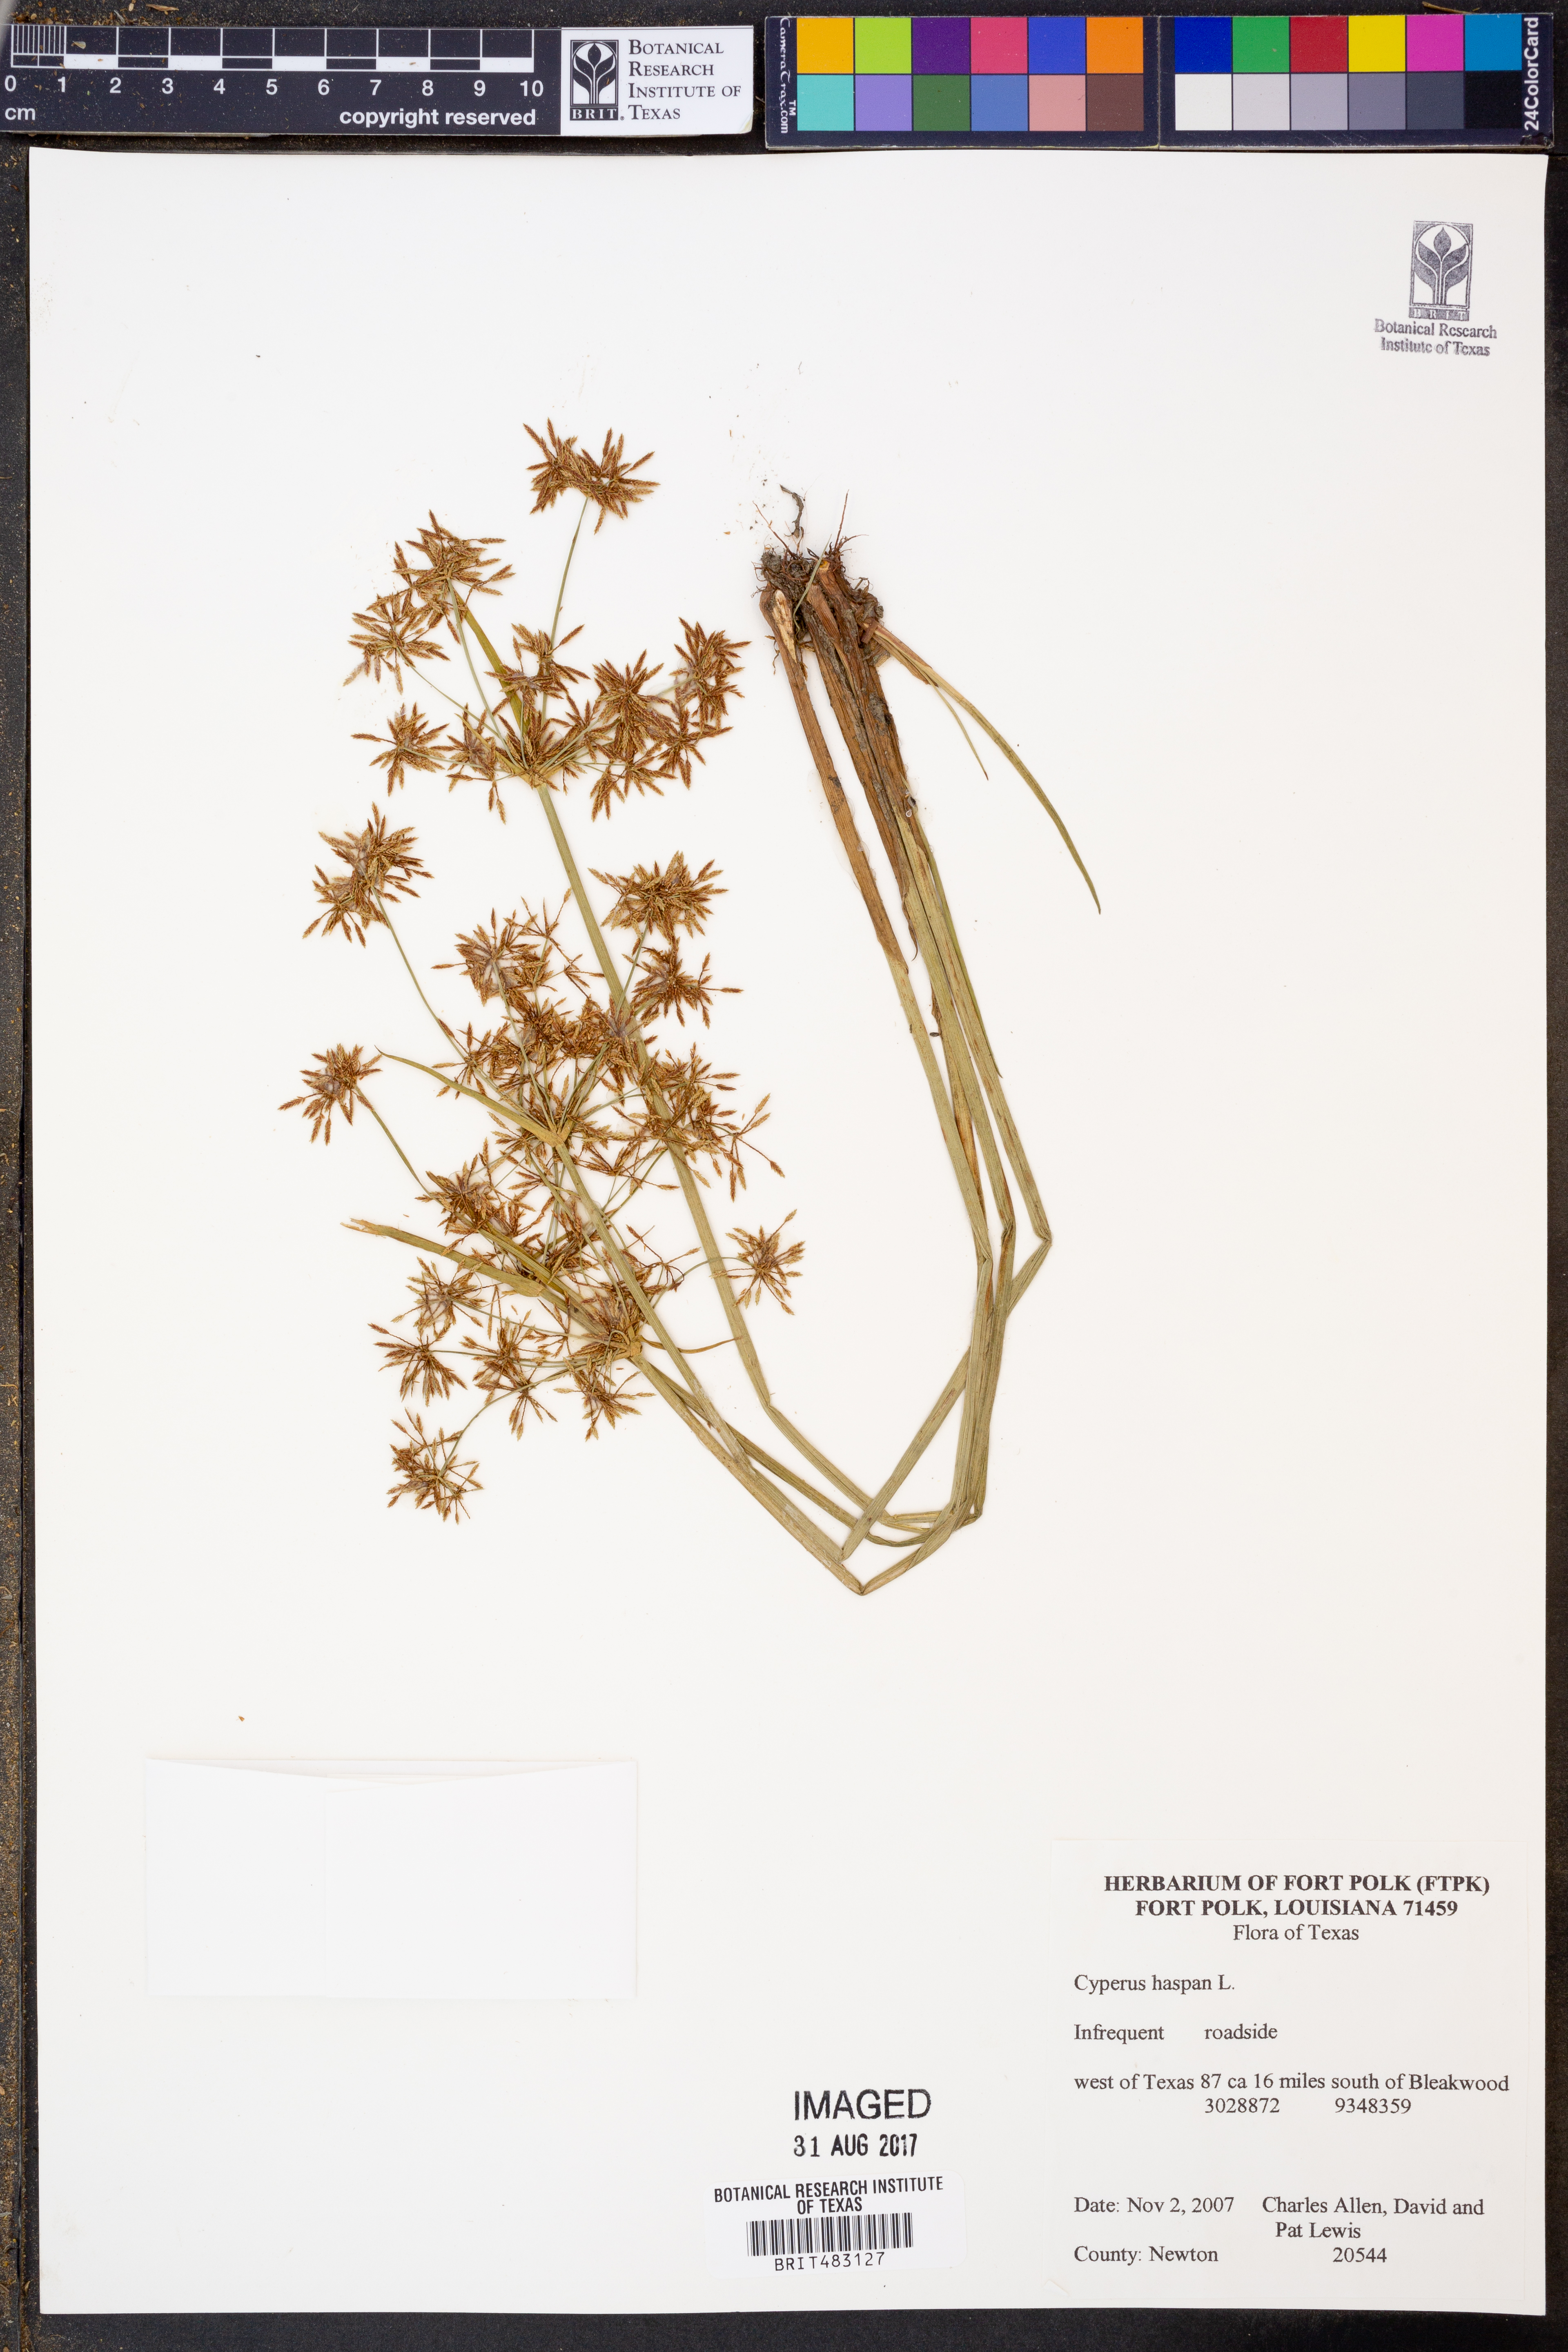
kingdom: Plantae
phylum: Tracheophyta
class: Liliopsida
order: Poales
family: Cyperaceae
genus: Cyperus
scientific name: Cyperus haspan
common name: Haspan flatsedge
